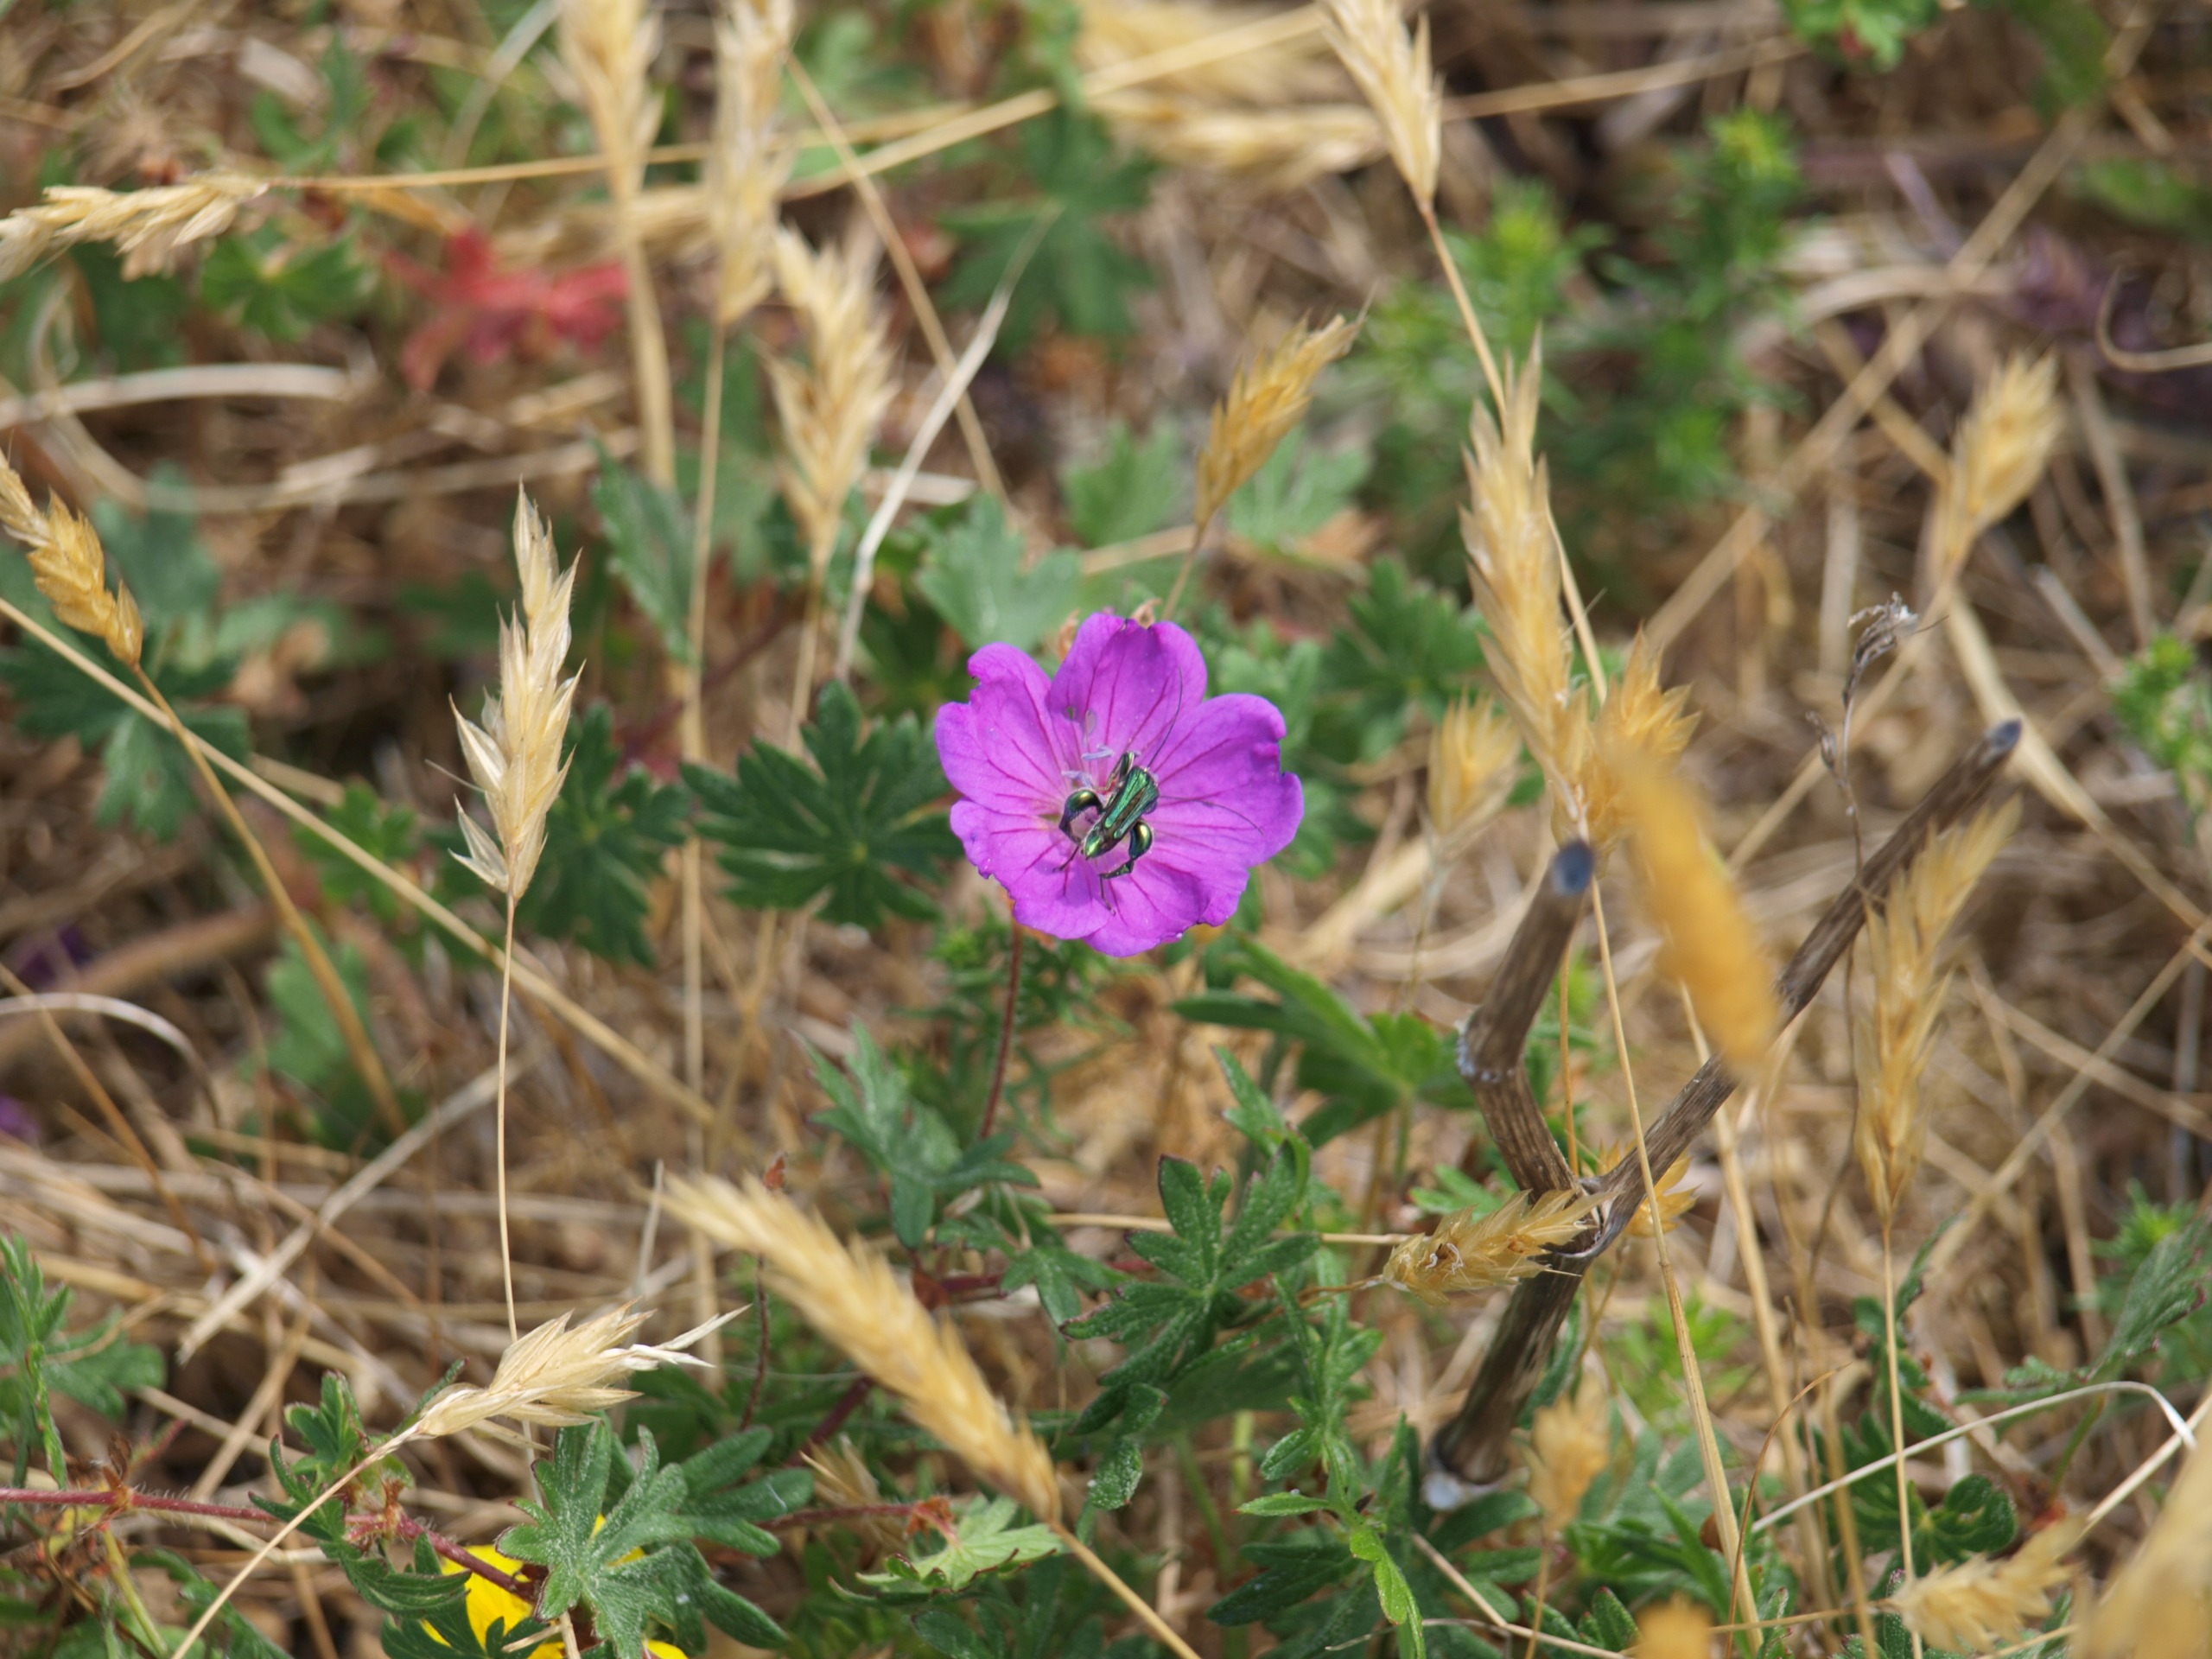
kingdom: Animalia
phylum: Arthropoda
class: Insecta
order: Coleoptera
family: Oedemeridae
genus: Oedemera
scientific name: Oedemera nobilis
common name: Tyklårssolbille
